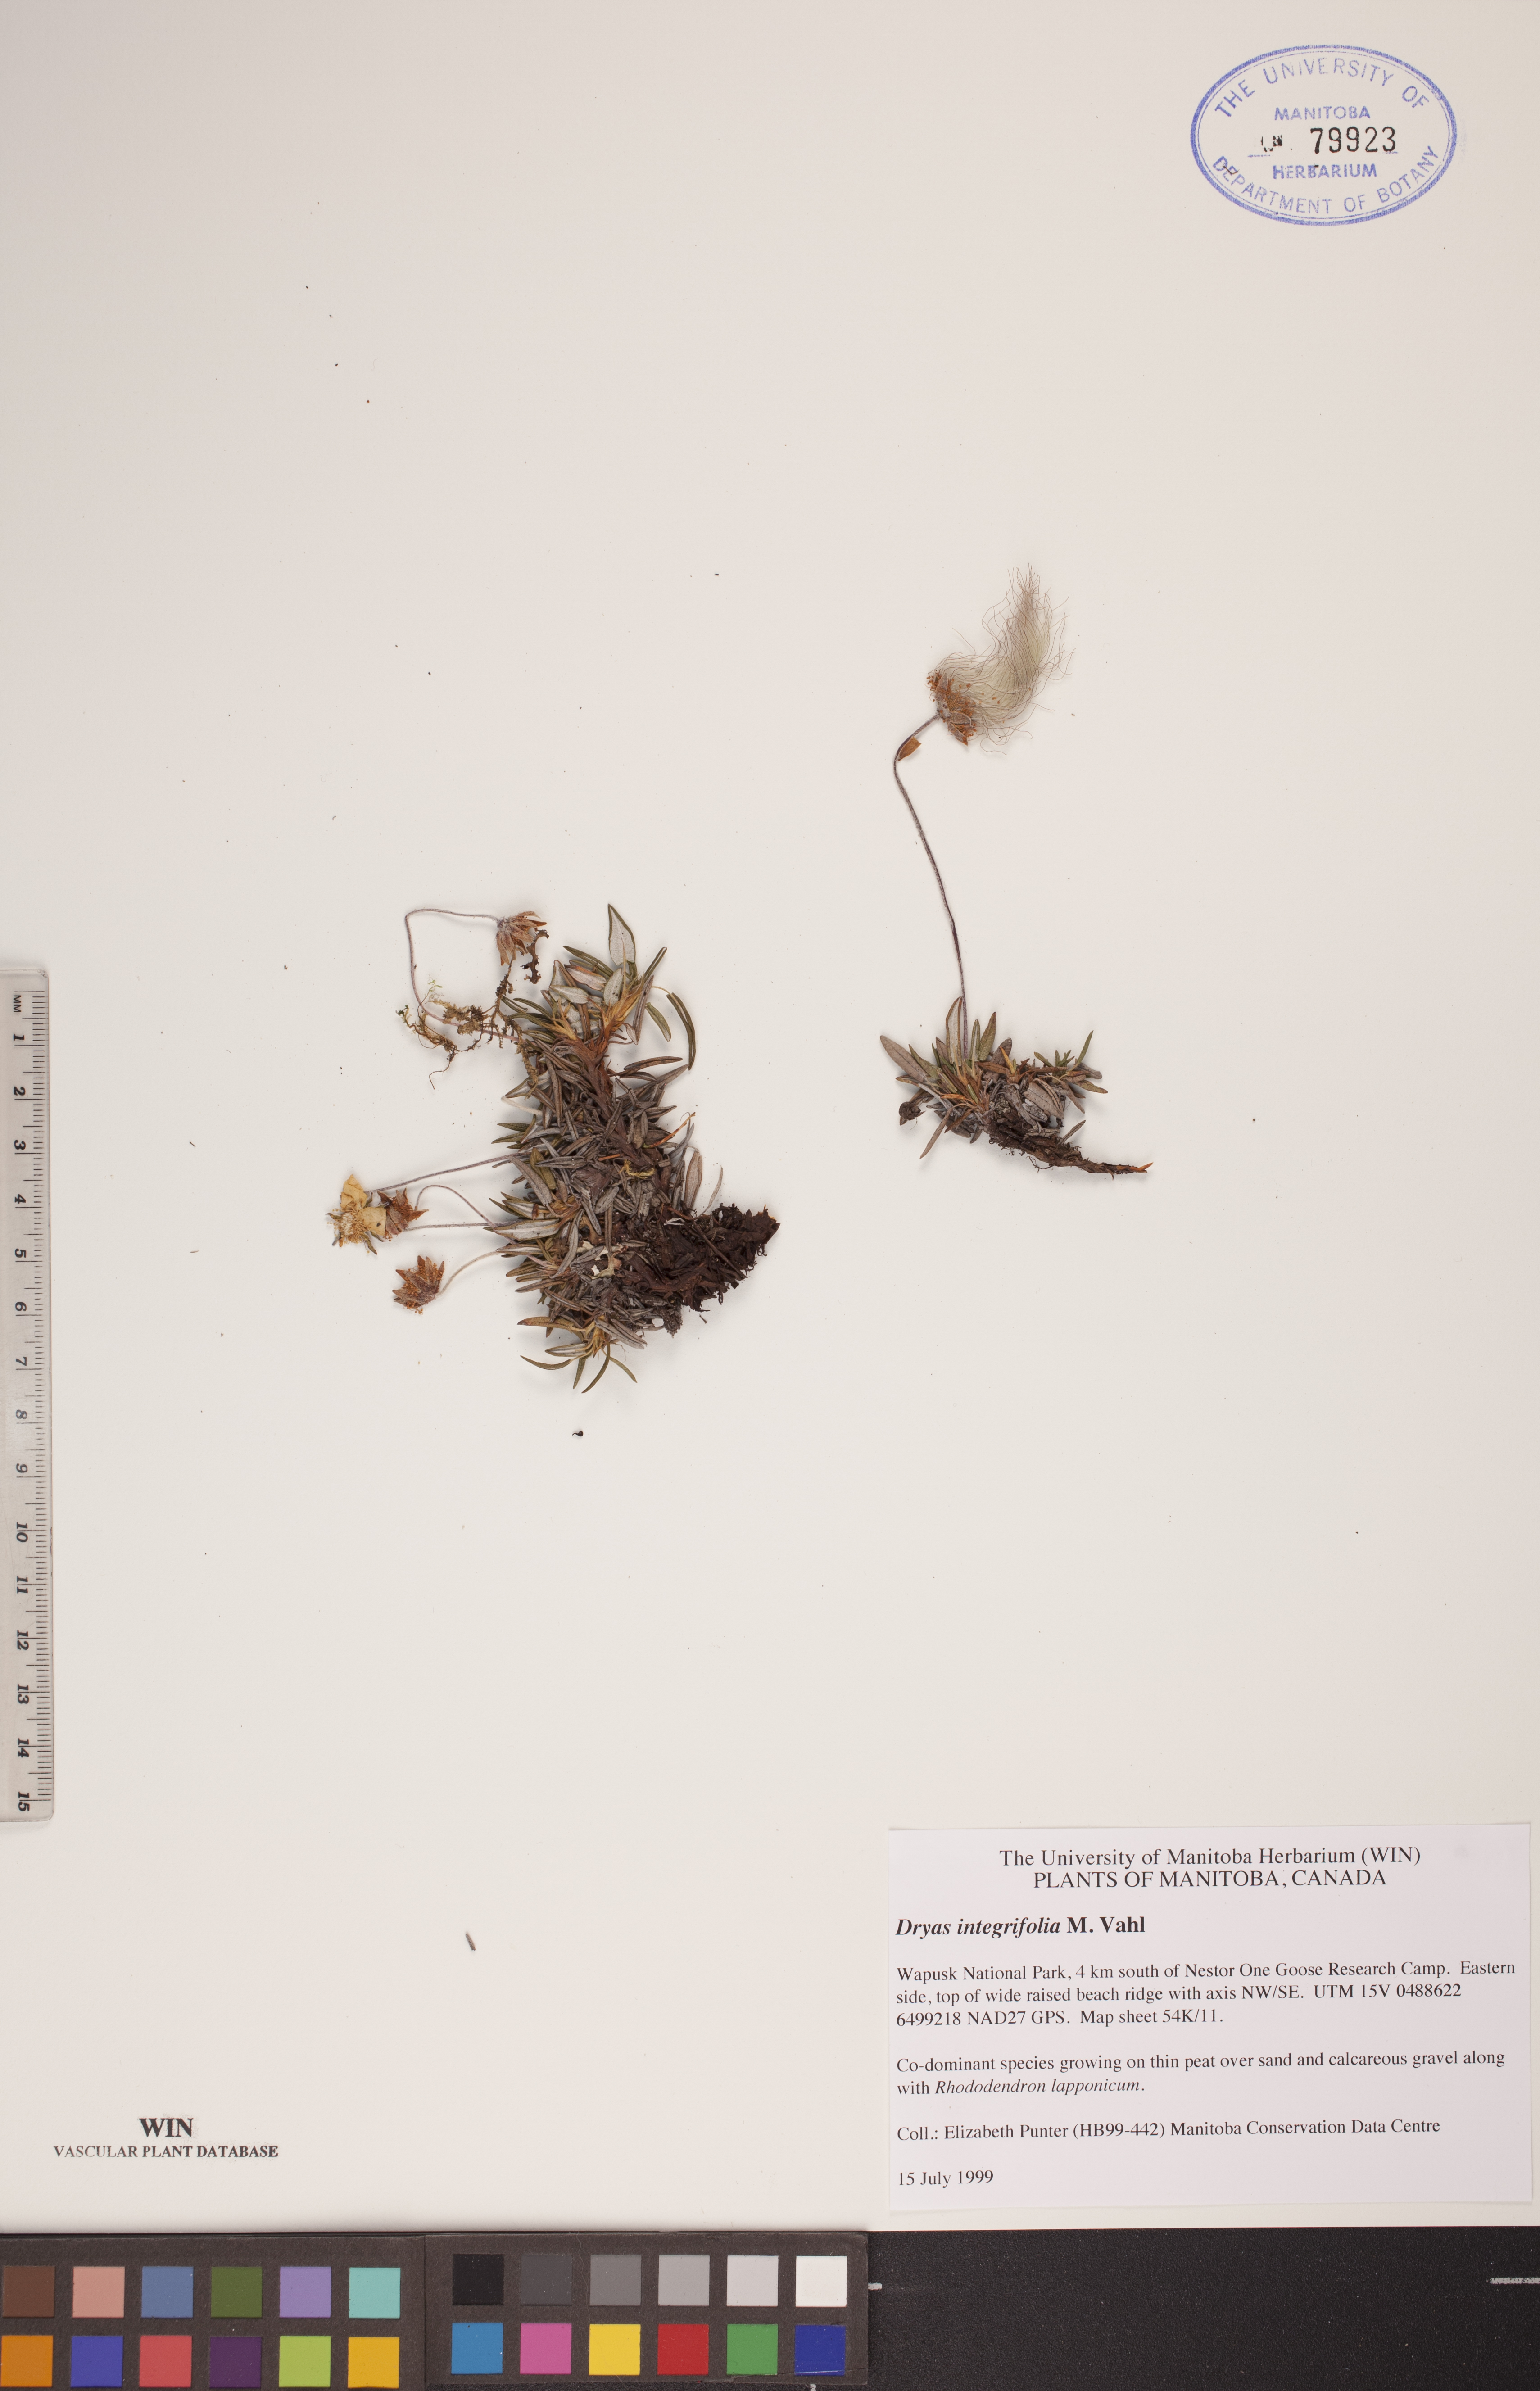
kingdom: Plantae
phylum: Tracheophyta
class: Magnoliopsida
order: Rosales
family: Rosaceae
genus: Dryas
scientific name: Dryas integrifolia
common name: Entire-leaved mountain avens
